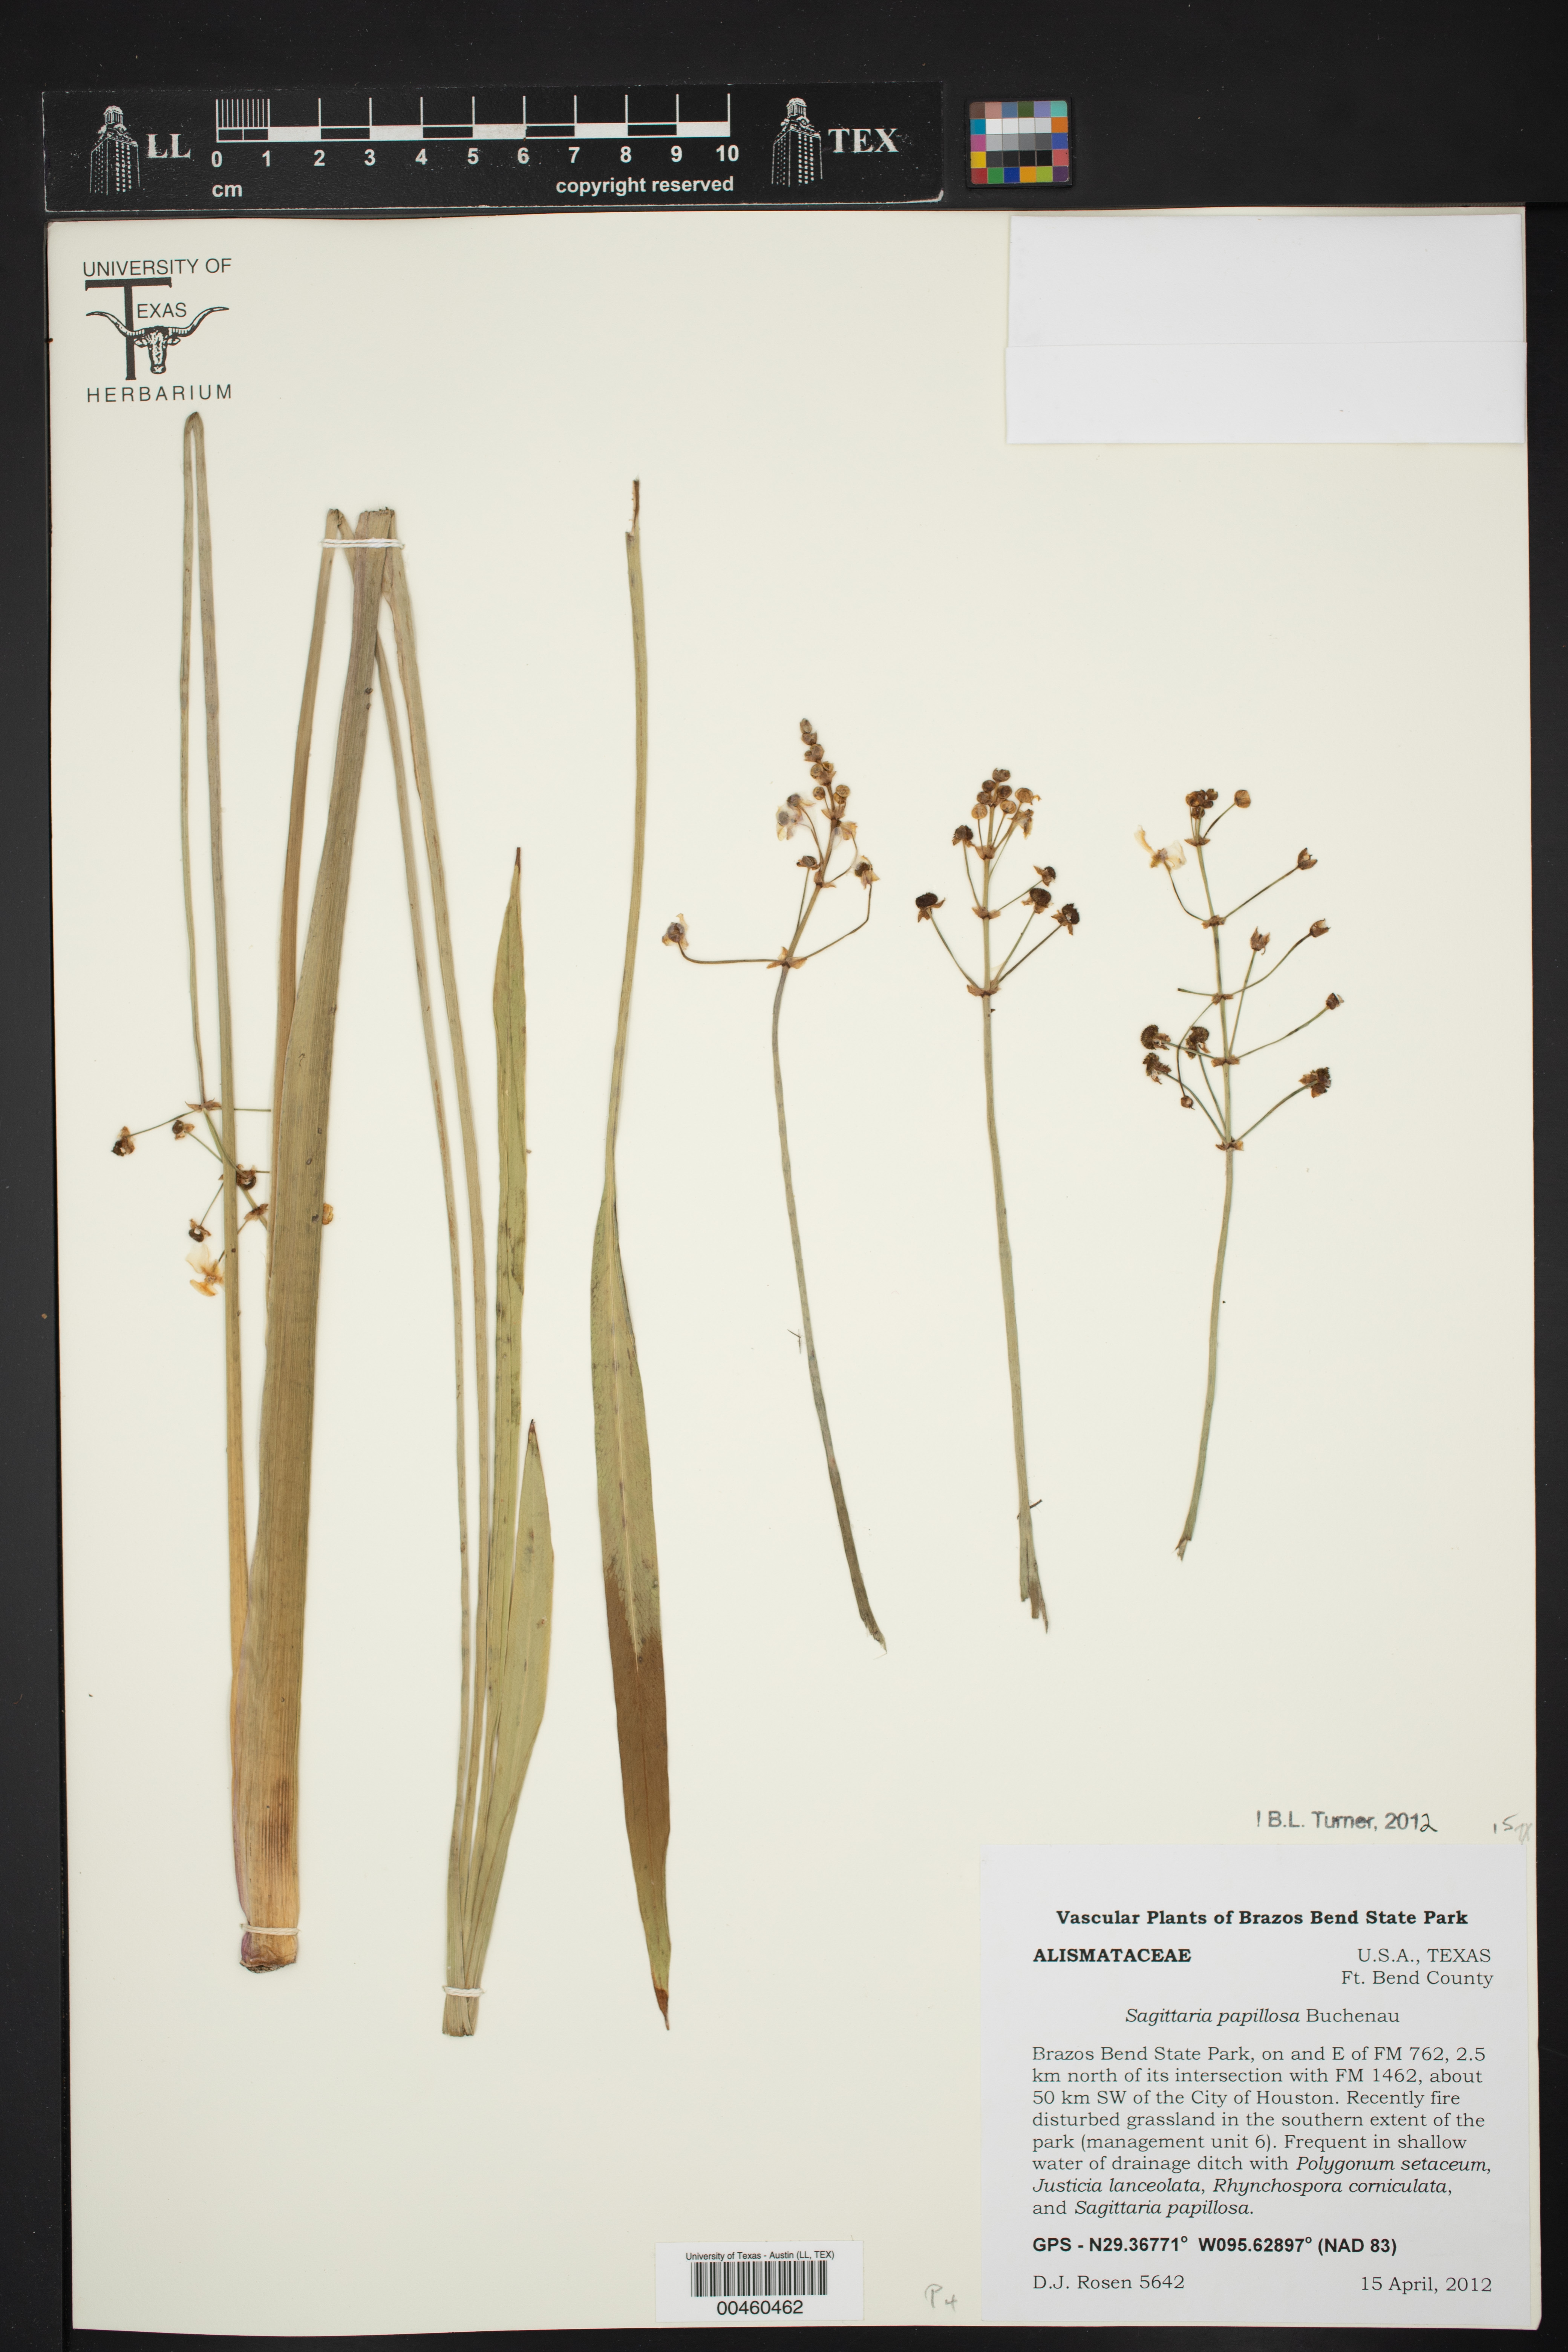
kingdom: Plantae
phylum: Tracheophyta
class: Liliopsida
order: Alismatales
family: Alismataceae
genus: Sagittaria
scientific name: Sagittaria papillosa
